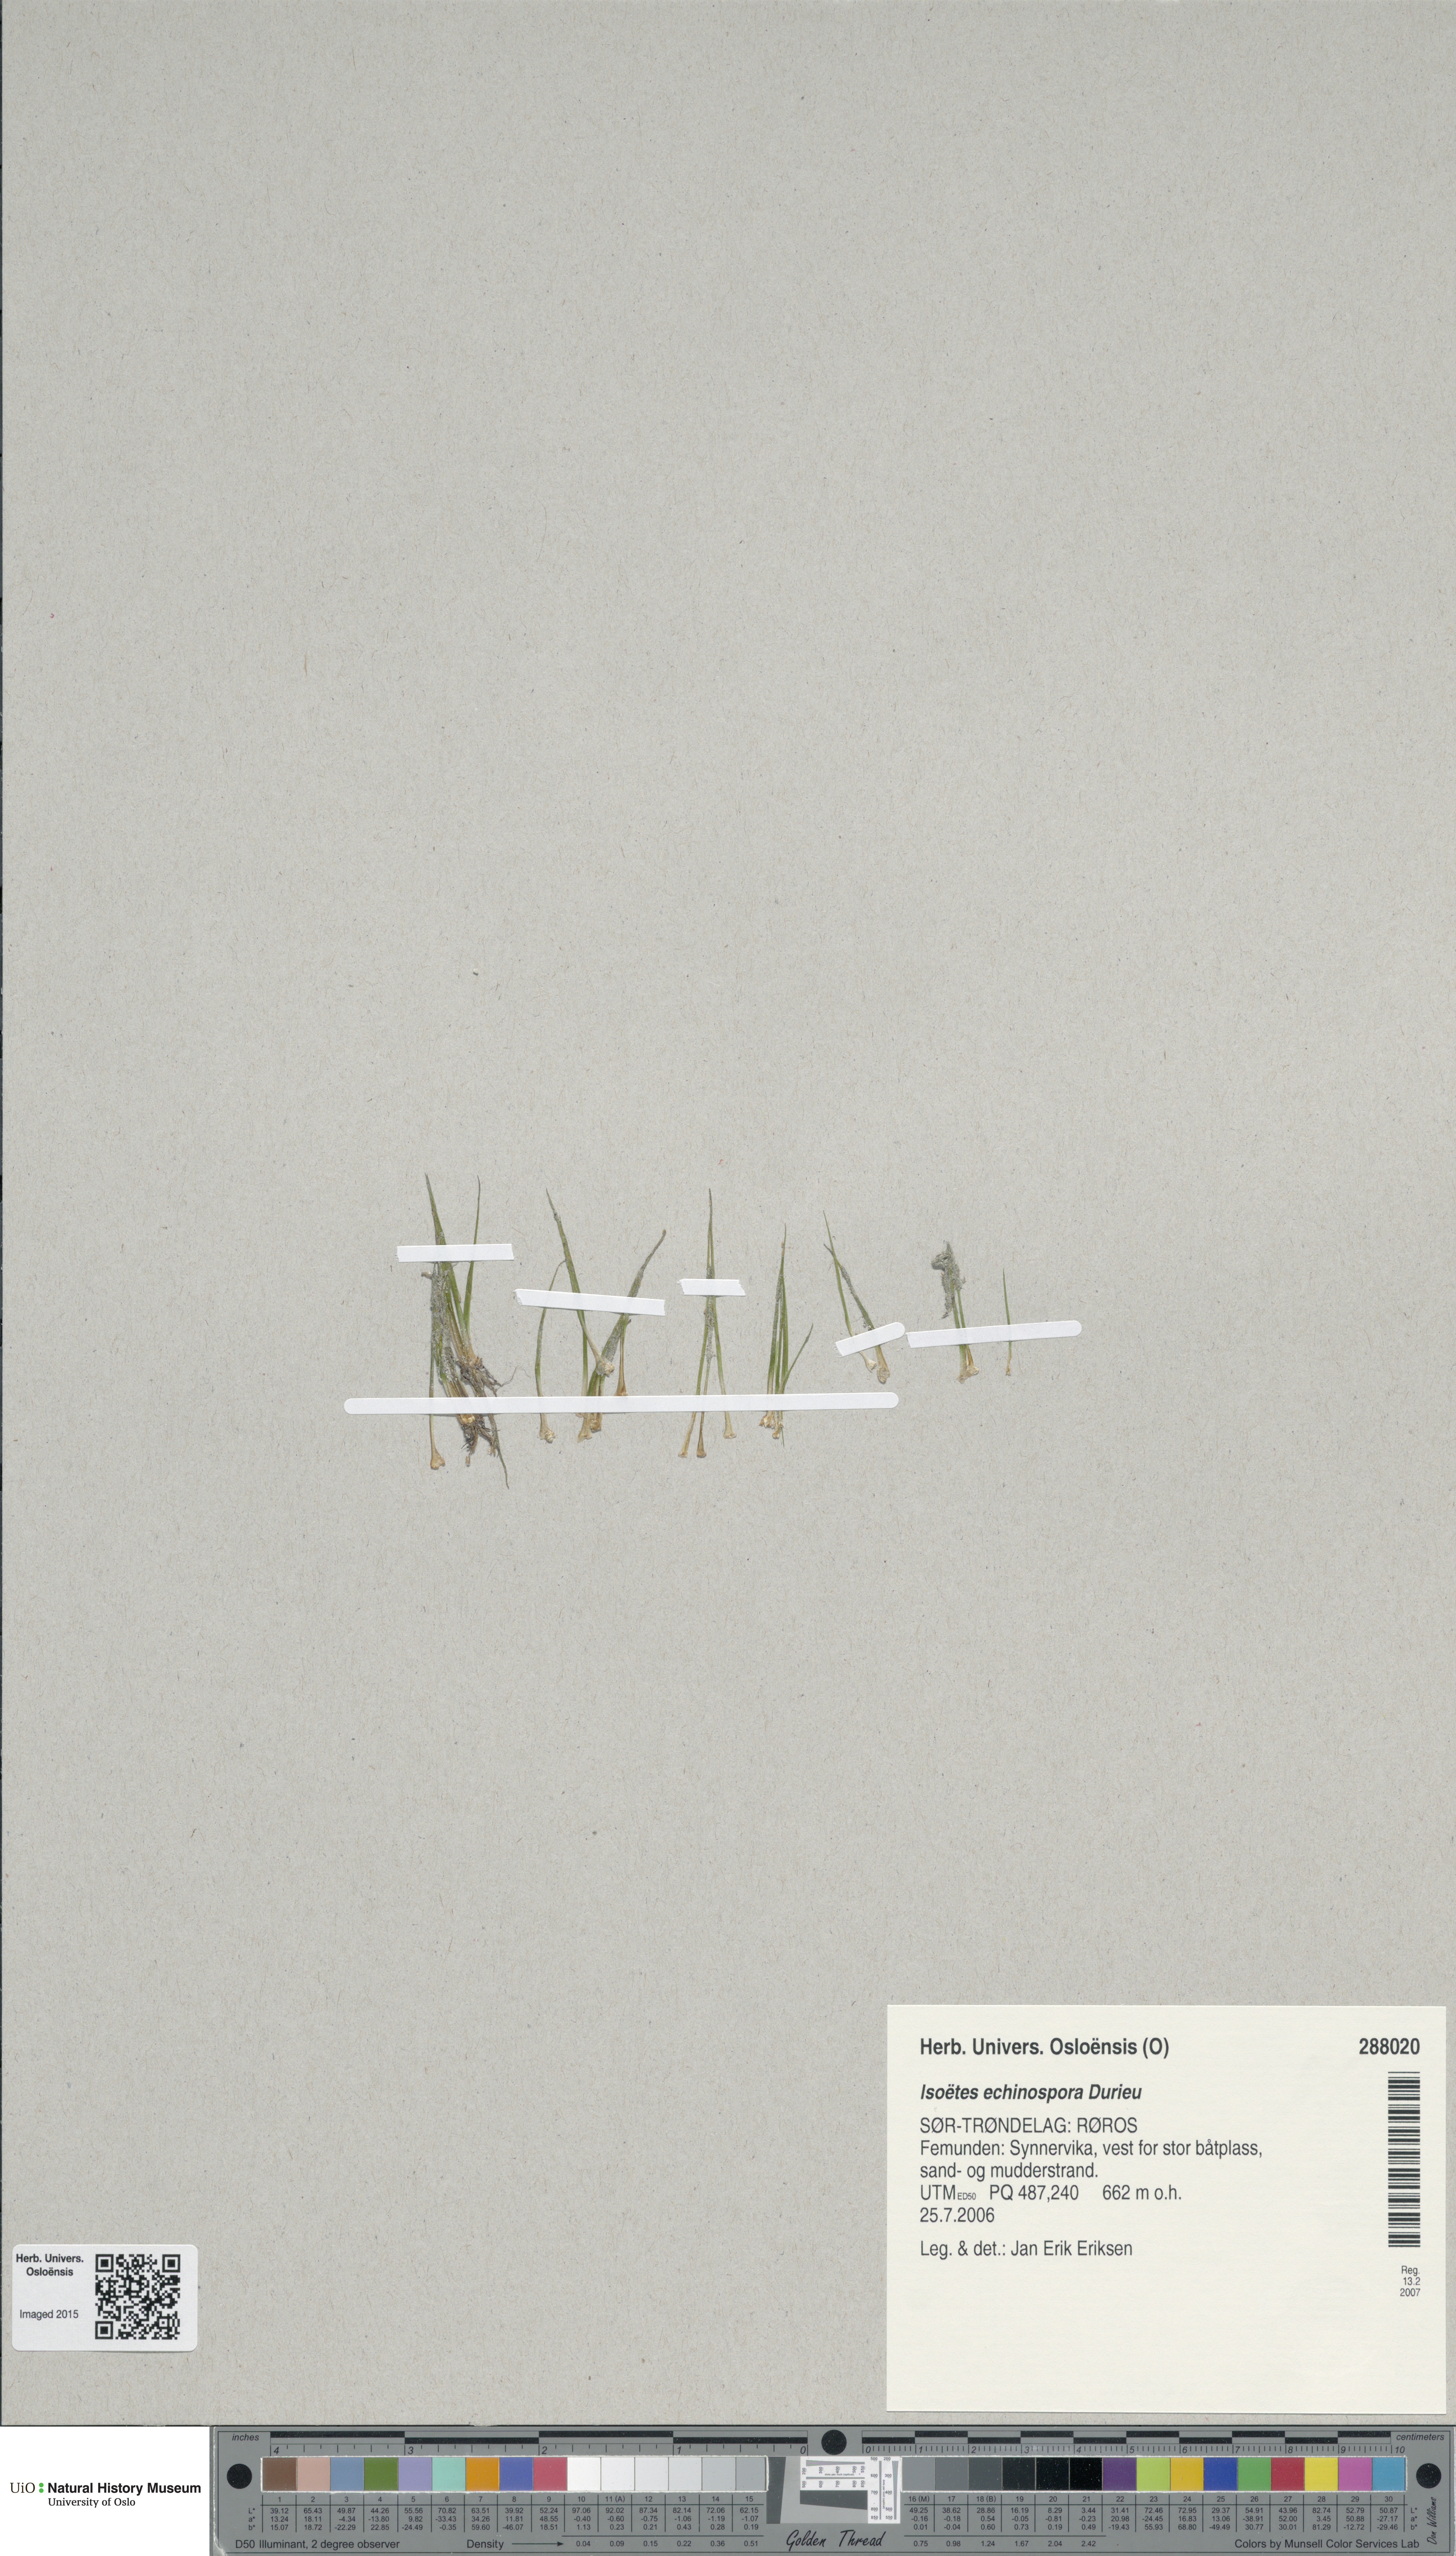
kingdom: Plantae
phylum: Tracheophyta
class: Lycopodiopsida
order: Isoetales
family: Isoetaceae
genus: Isoetes
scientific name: Isoetes echinospora
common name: Spring quillwort
